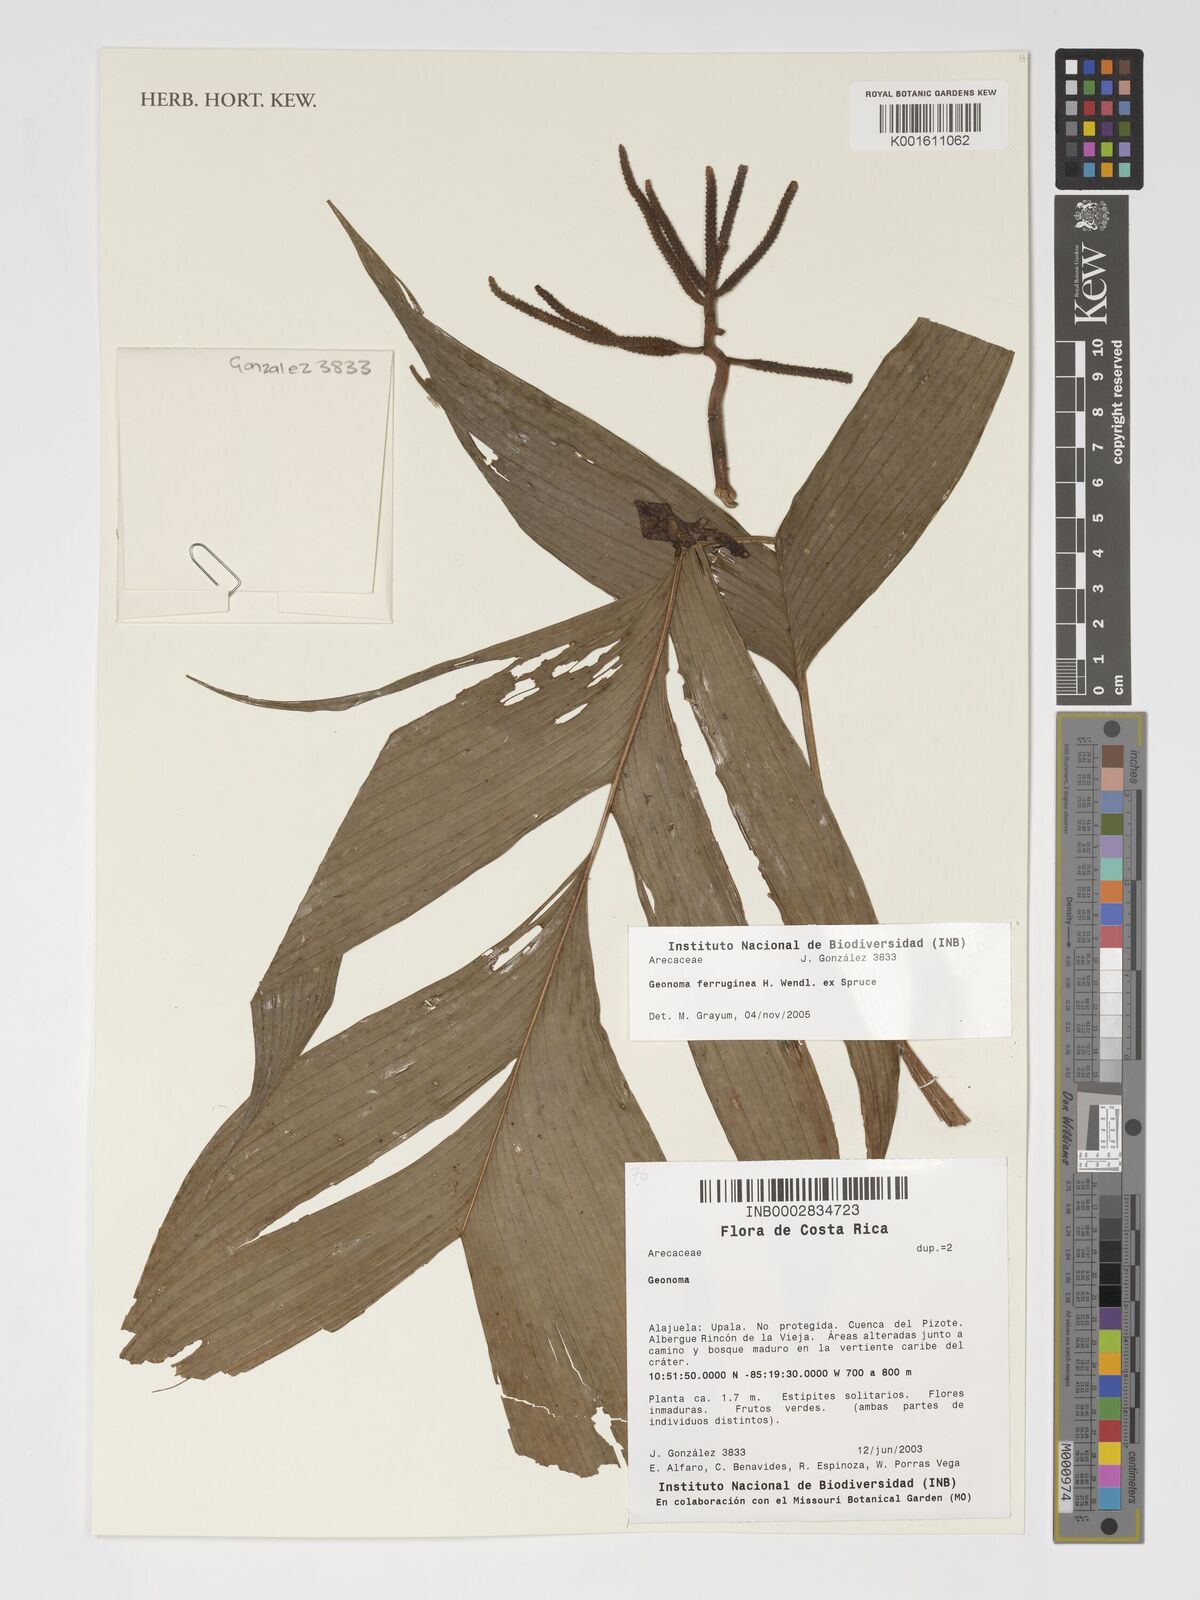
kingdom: Plantae
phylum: Tracheophyta
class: Liliopsida
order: Arecales
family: Arecaceae
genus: Geonoma
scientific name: Geonoma ferruginea
